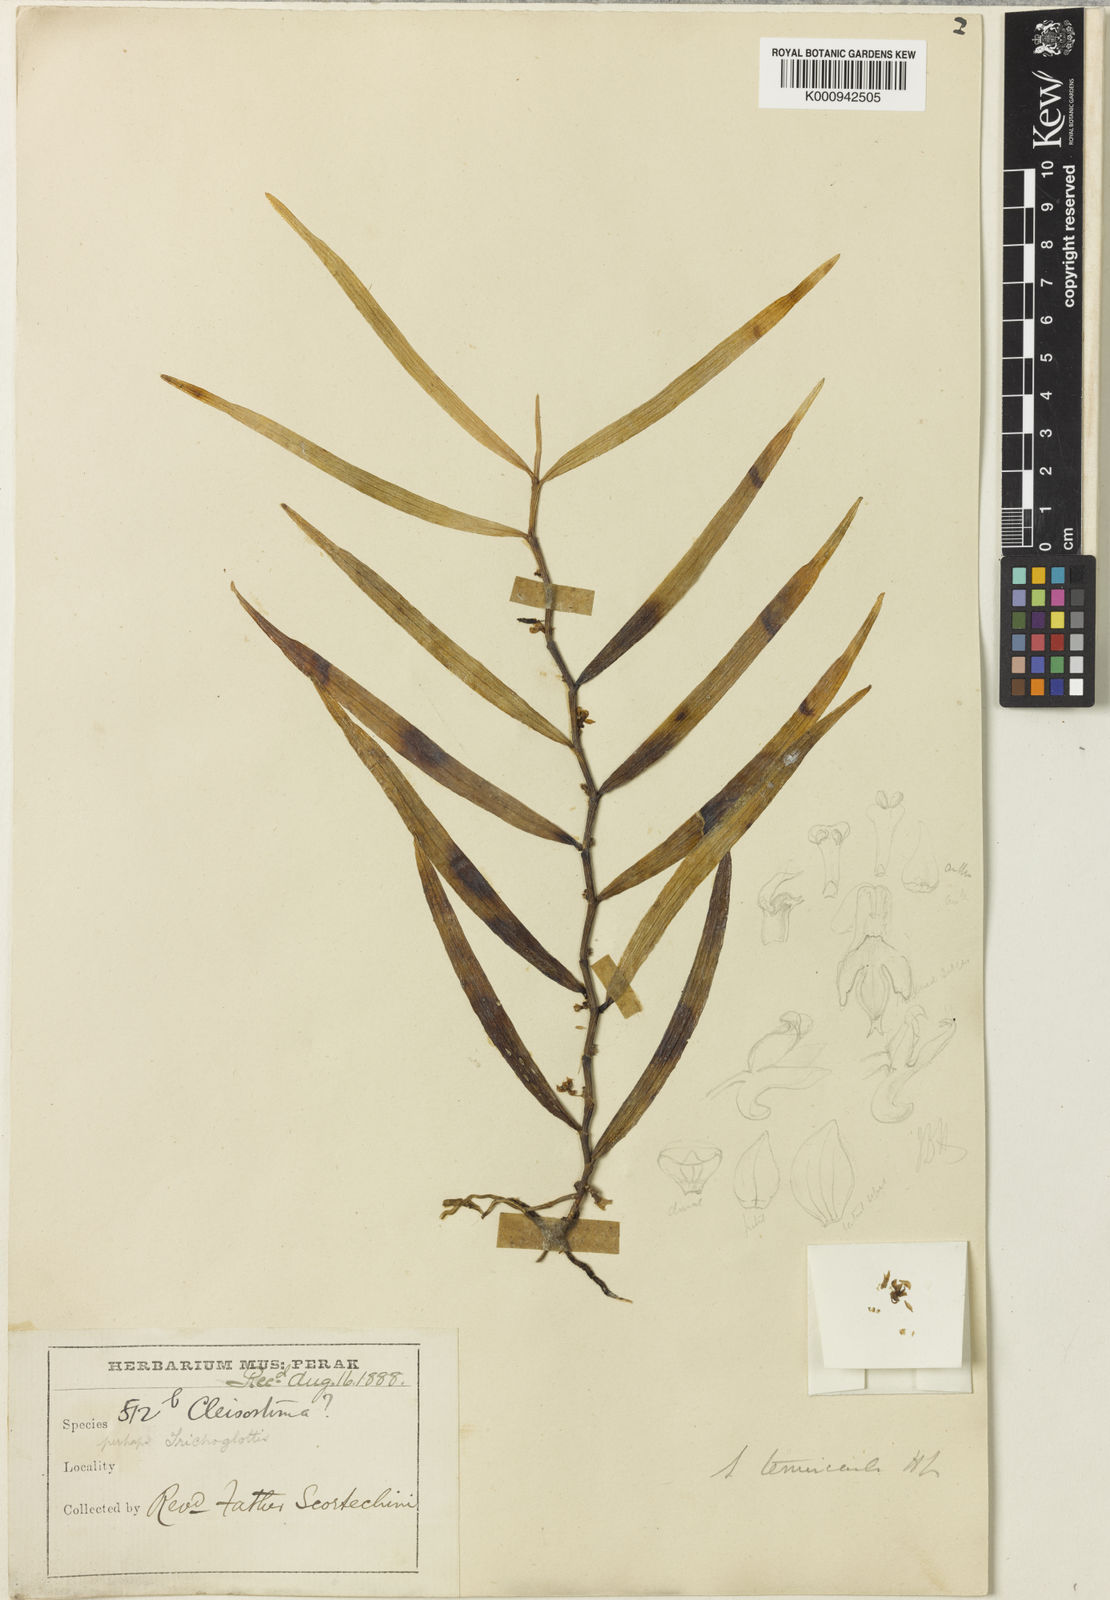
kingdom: Plantae
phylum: Tracheophyta
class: Liliopsida
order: Asparagales
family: Orchidaceae
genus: Trichoglottis
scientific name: Trichoglottis ventricularis
